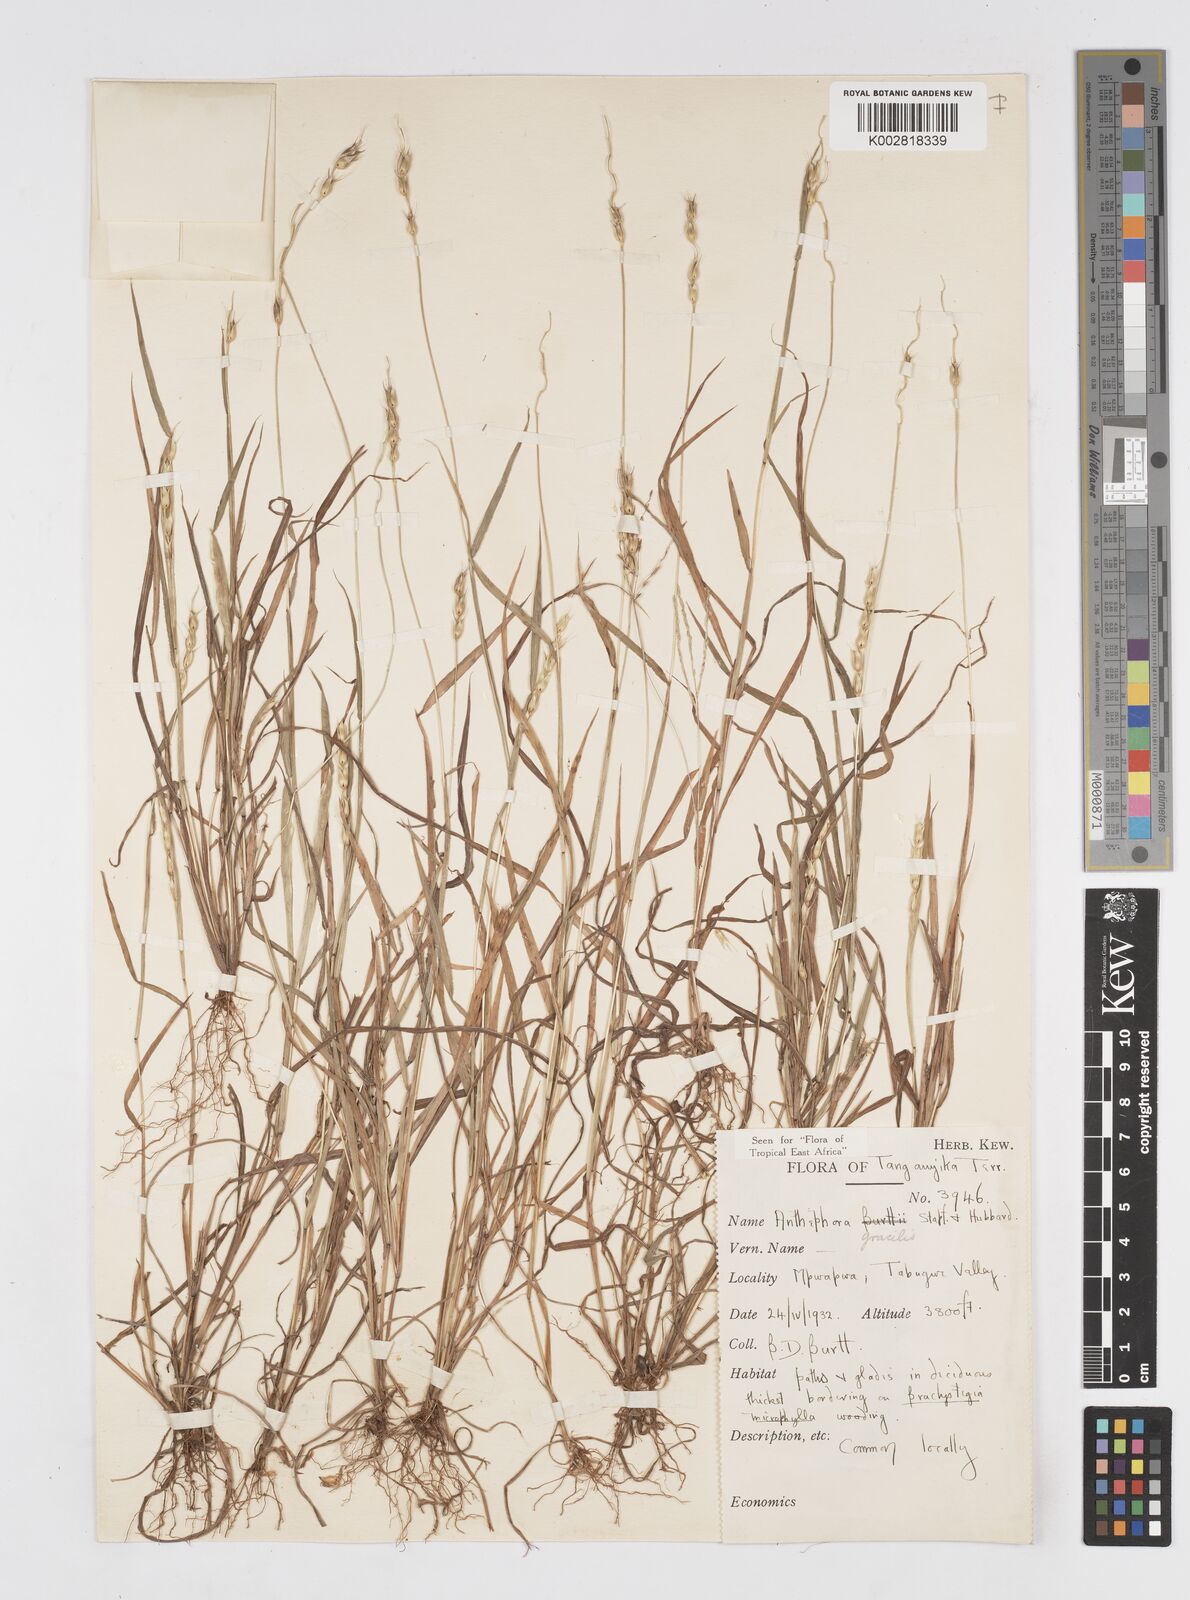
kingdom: Plantae
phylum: Tracheophyta
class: Liliopsida
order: Poales
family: Poaceae
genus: Anthephora
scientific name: Anthephora truncata
